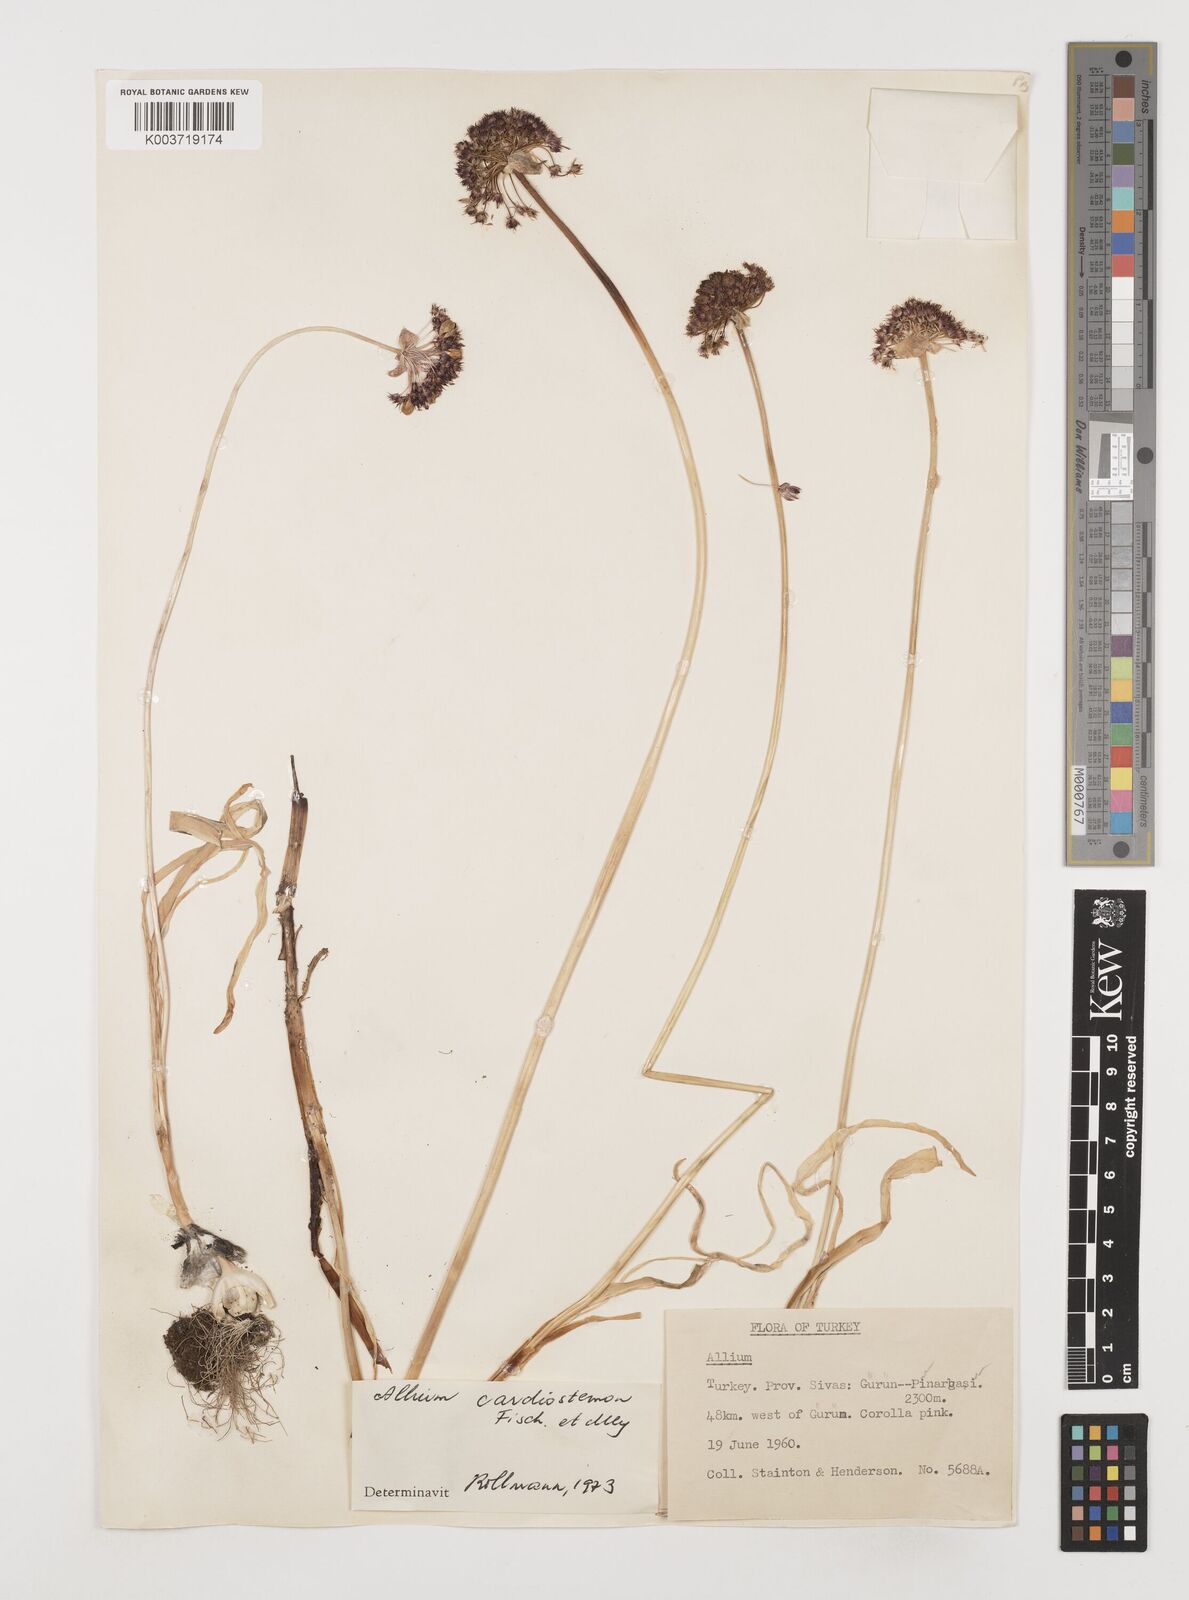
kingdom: Plantae
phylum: Tracheophyta
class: Liliopsida
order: Asparagales
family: Amaryllidaceae
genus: Allium
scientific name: Allium cardiostemon
